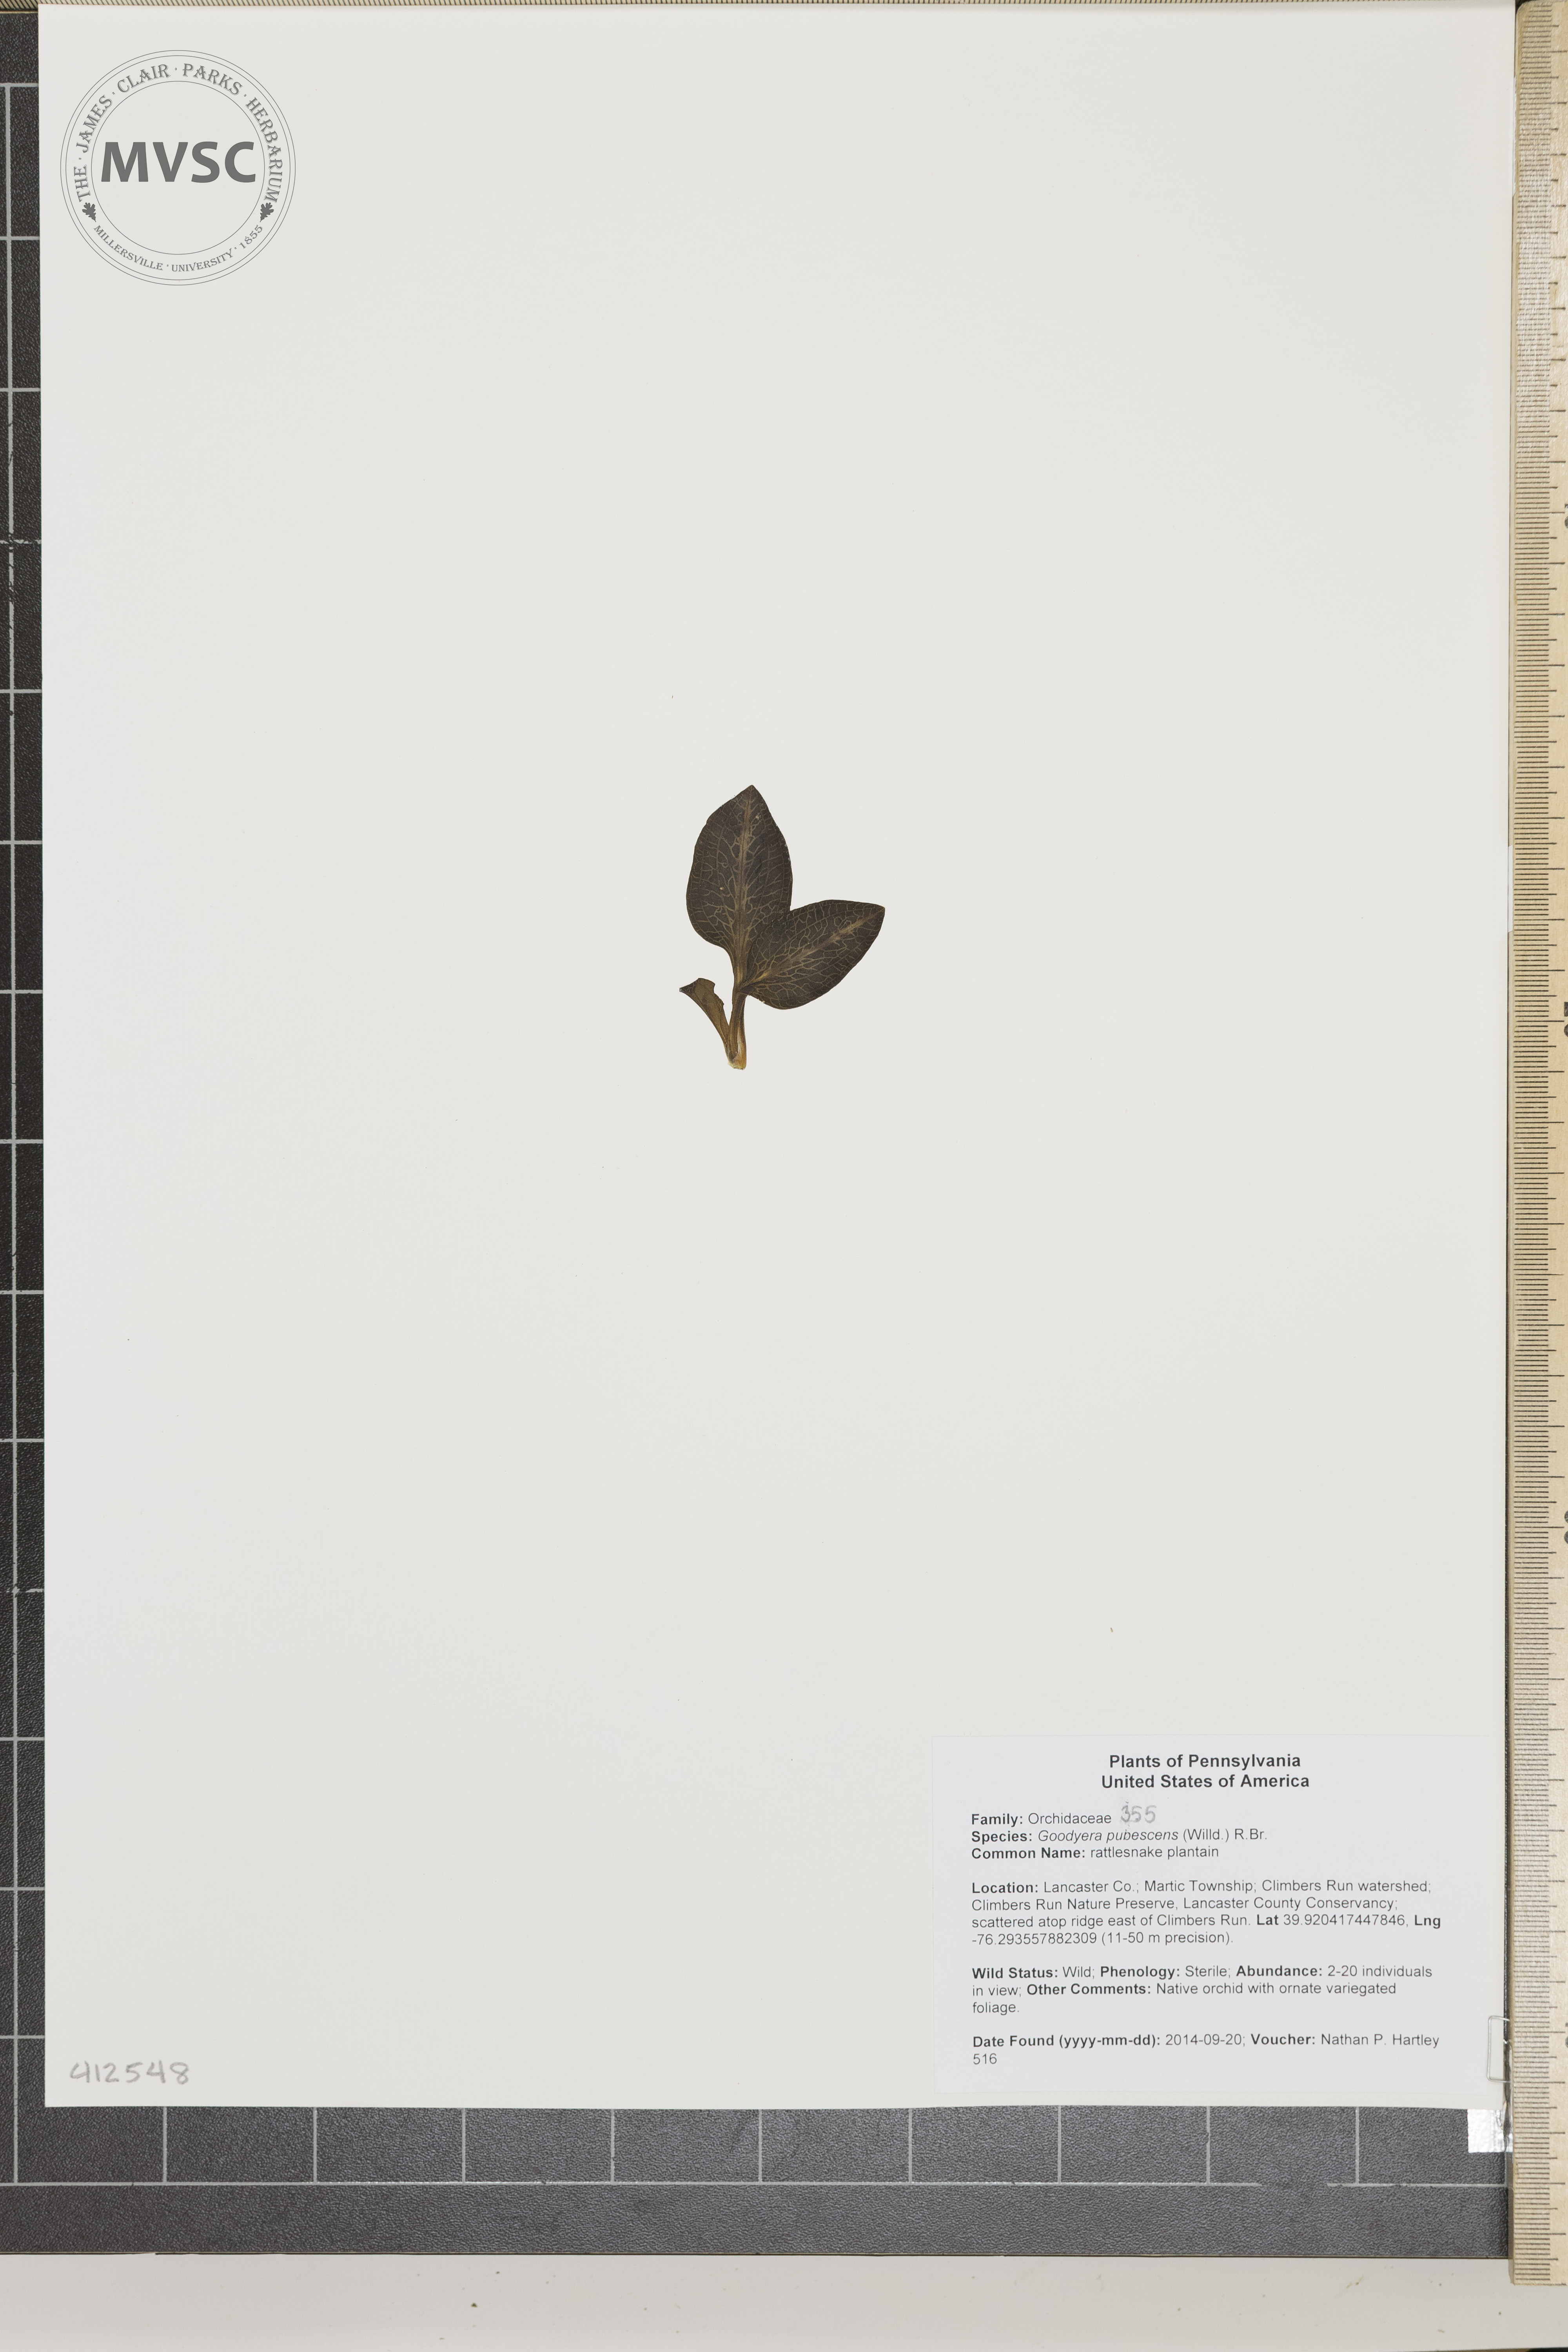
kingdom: Plantae
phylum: Tracheophyta
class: Liliopsida
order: Asparagales
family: Orchidaceae
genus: Goodyera
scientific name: Goodyera pubescens
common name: downy rattlesnake plantain
